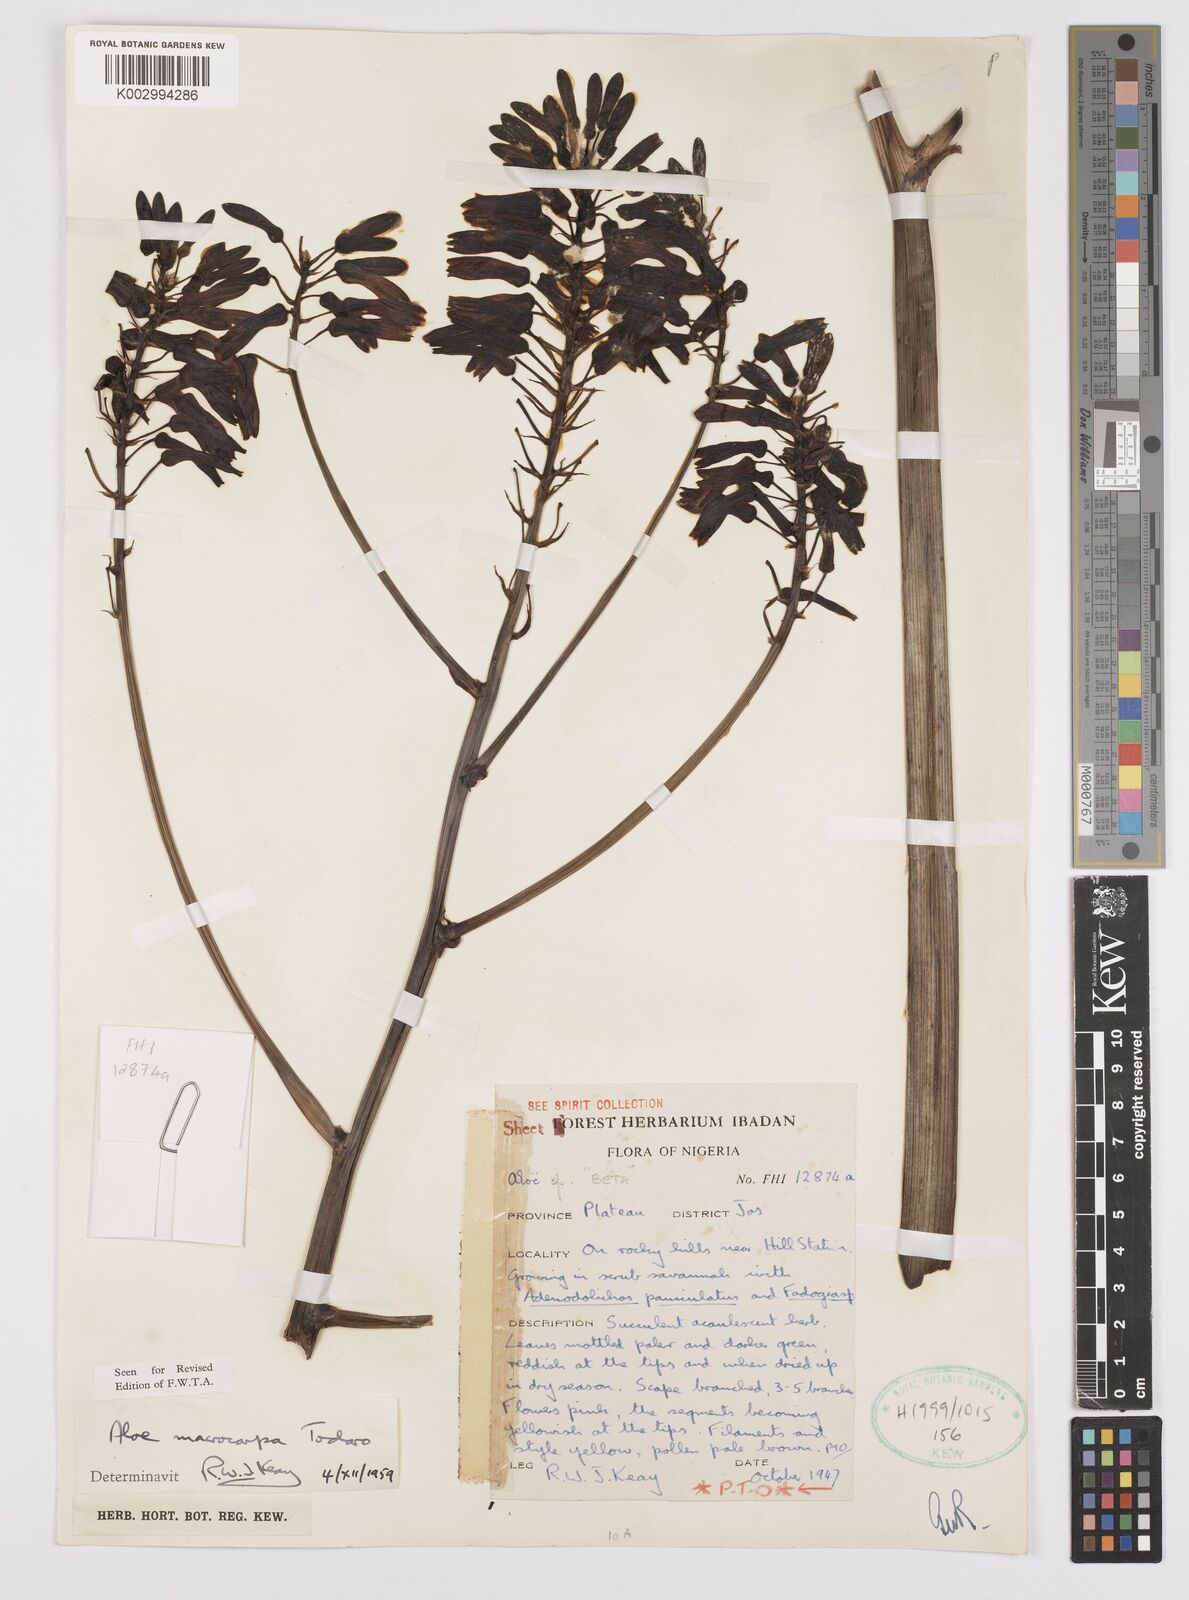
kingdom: Plantae
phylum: Tracheophyta
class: Liliopsida
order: Asparagales
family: Asphodelaceae
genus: Aloe
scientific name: Aloe macrocarpa
